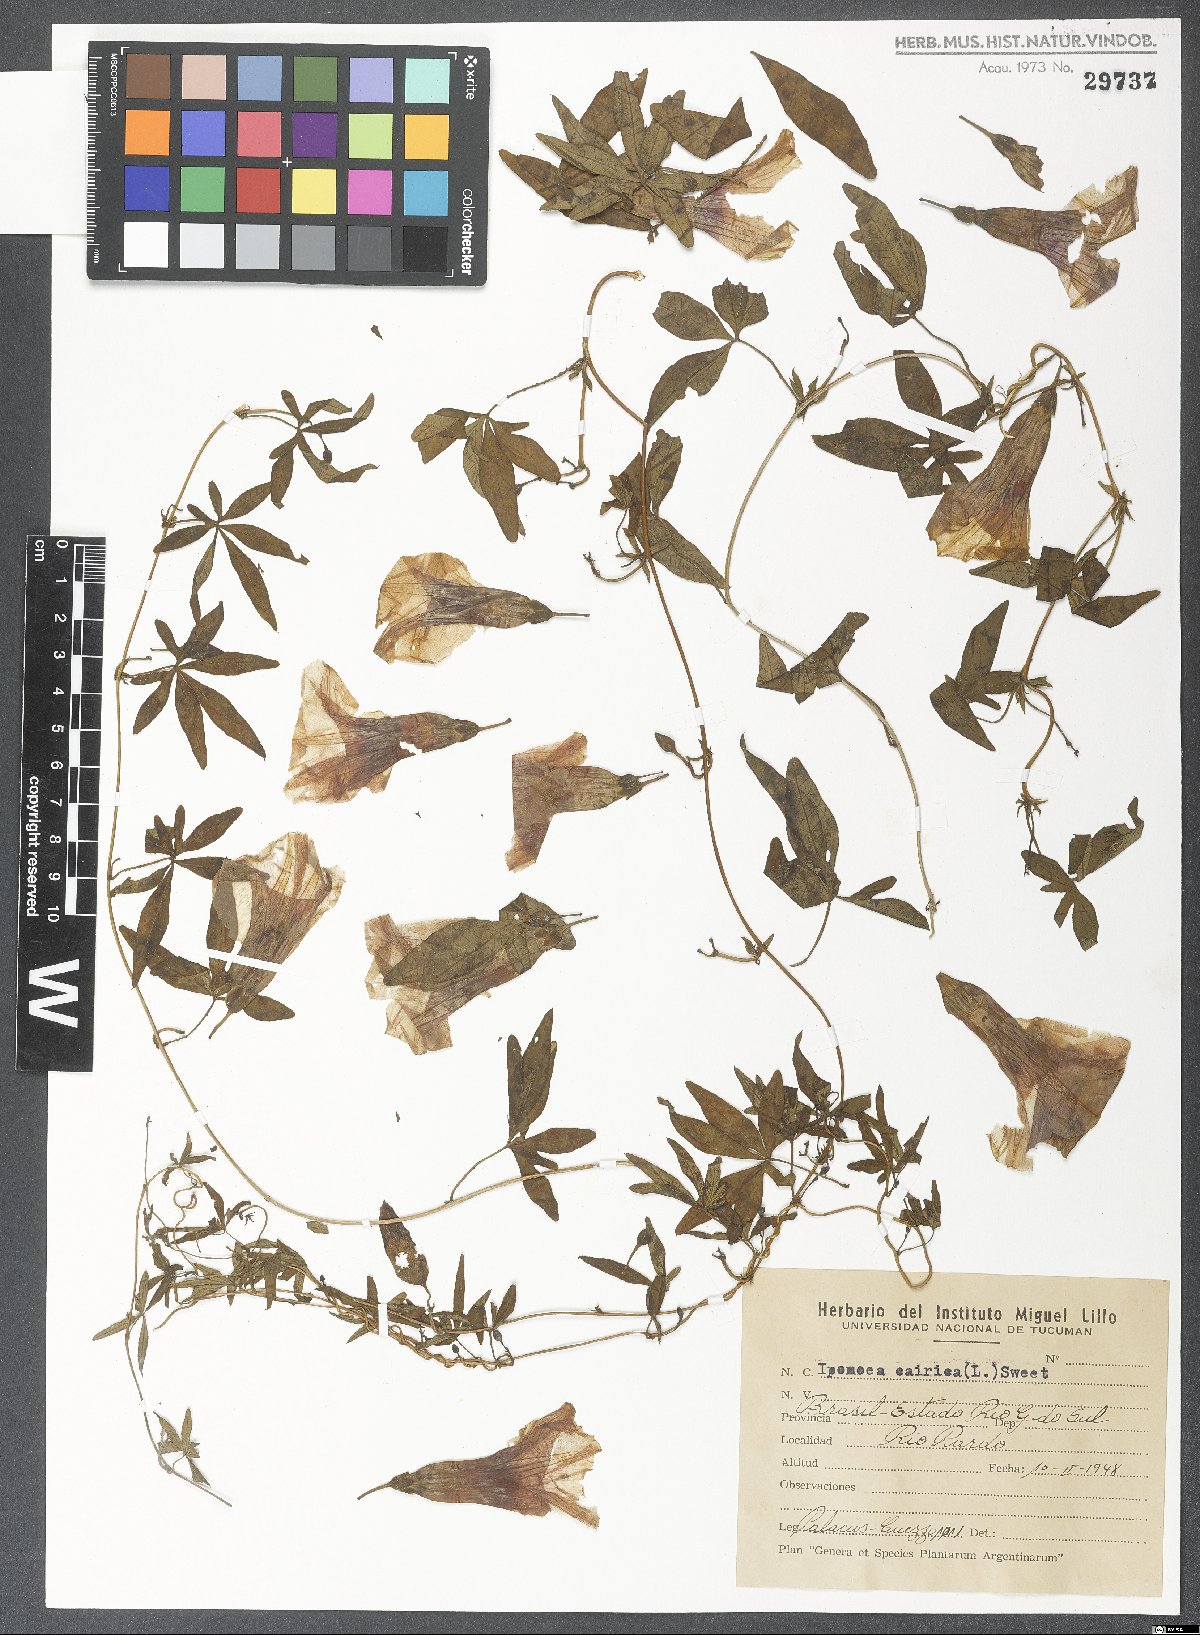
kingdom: Plantae
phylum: Tracheophyta
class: Magnoliopsida
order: Solanales
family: Convolvulaceae
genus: Ipomoea
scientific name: Ipomoea cairica
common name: Mile a minute vine
